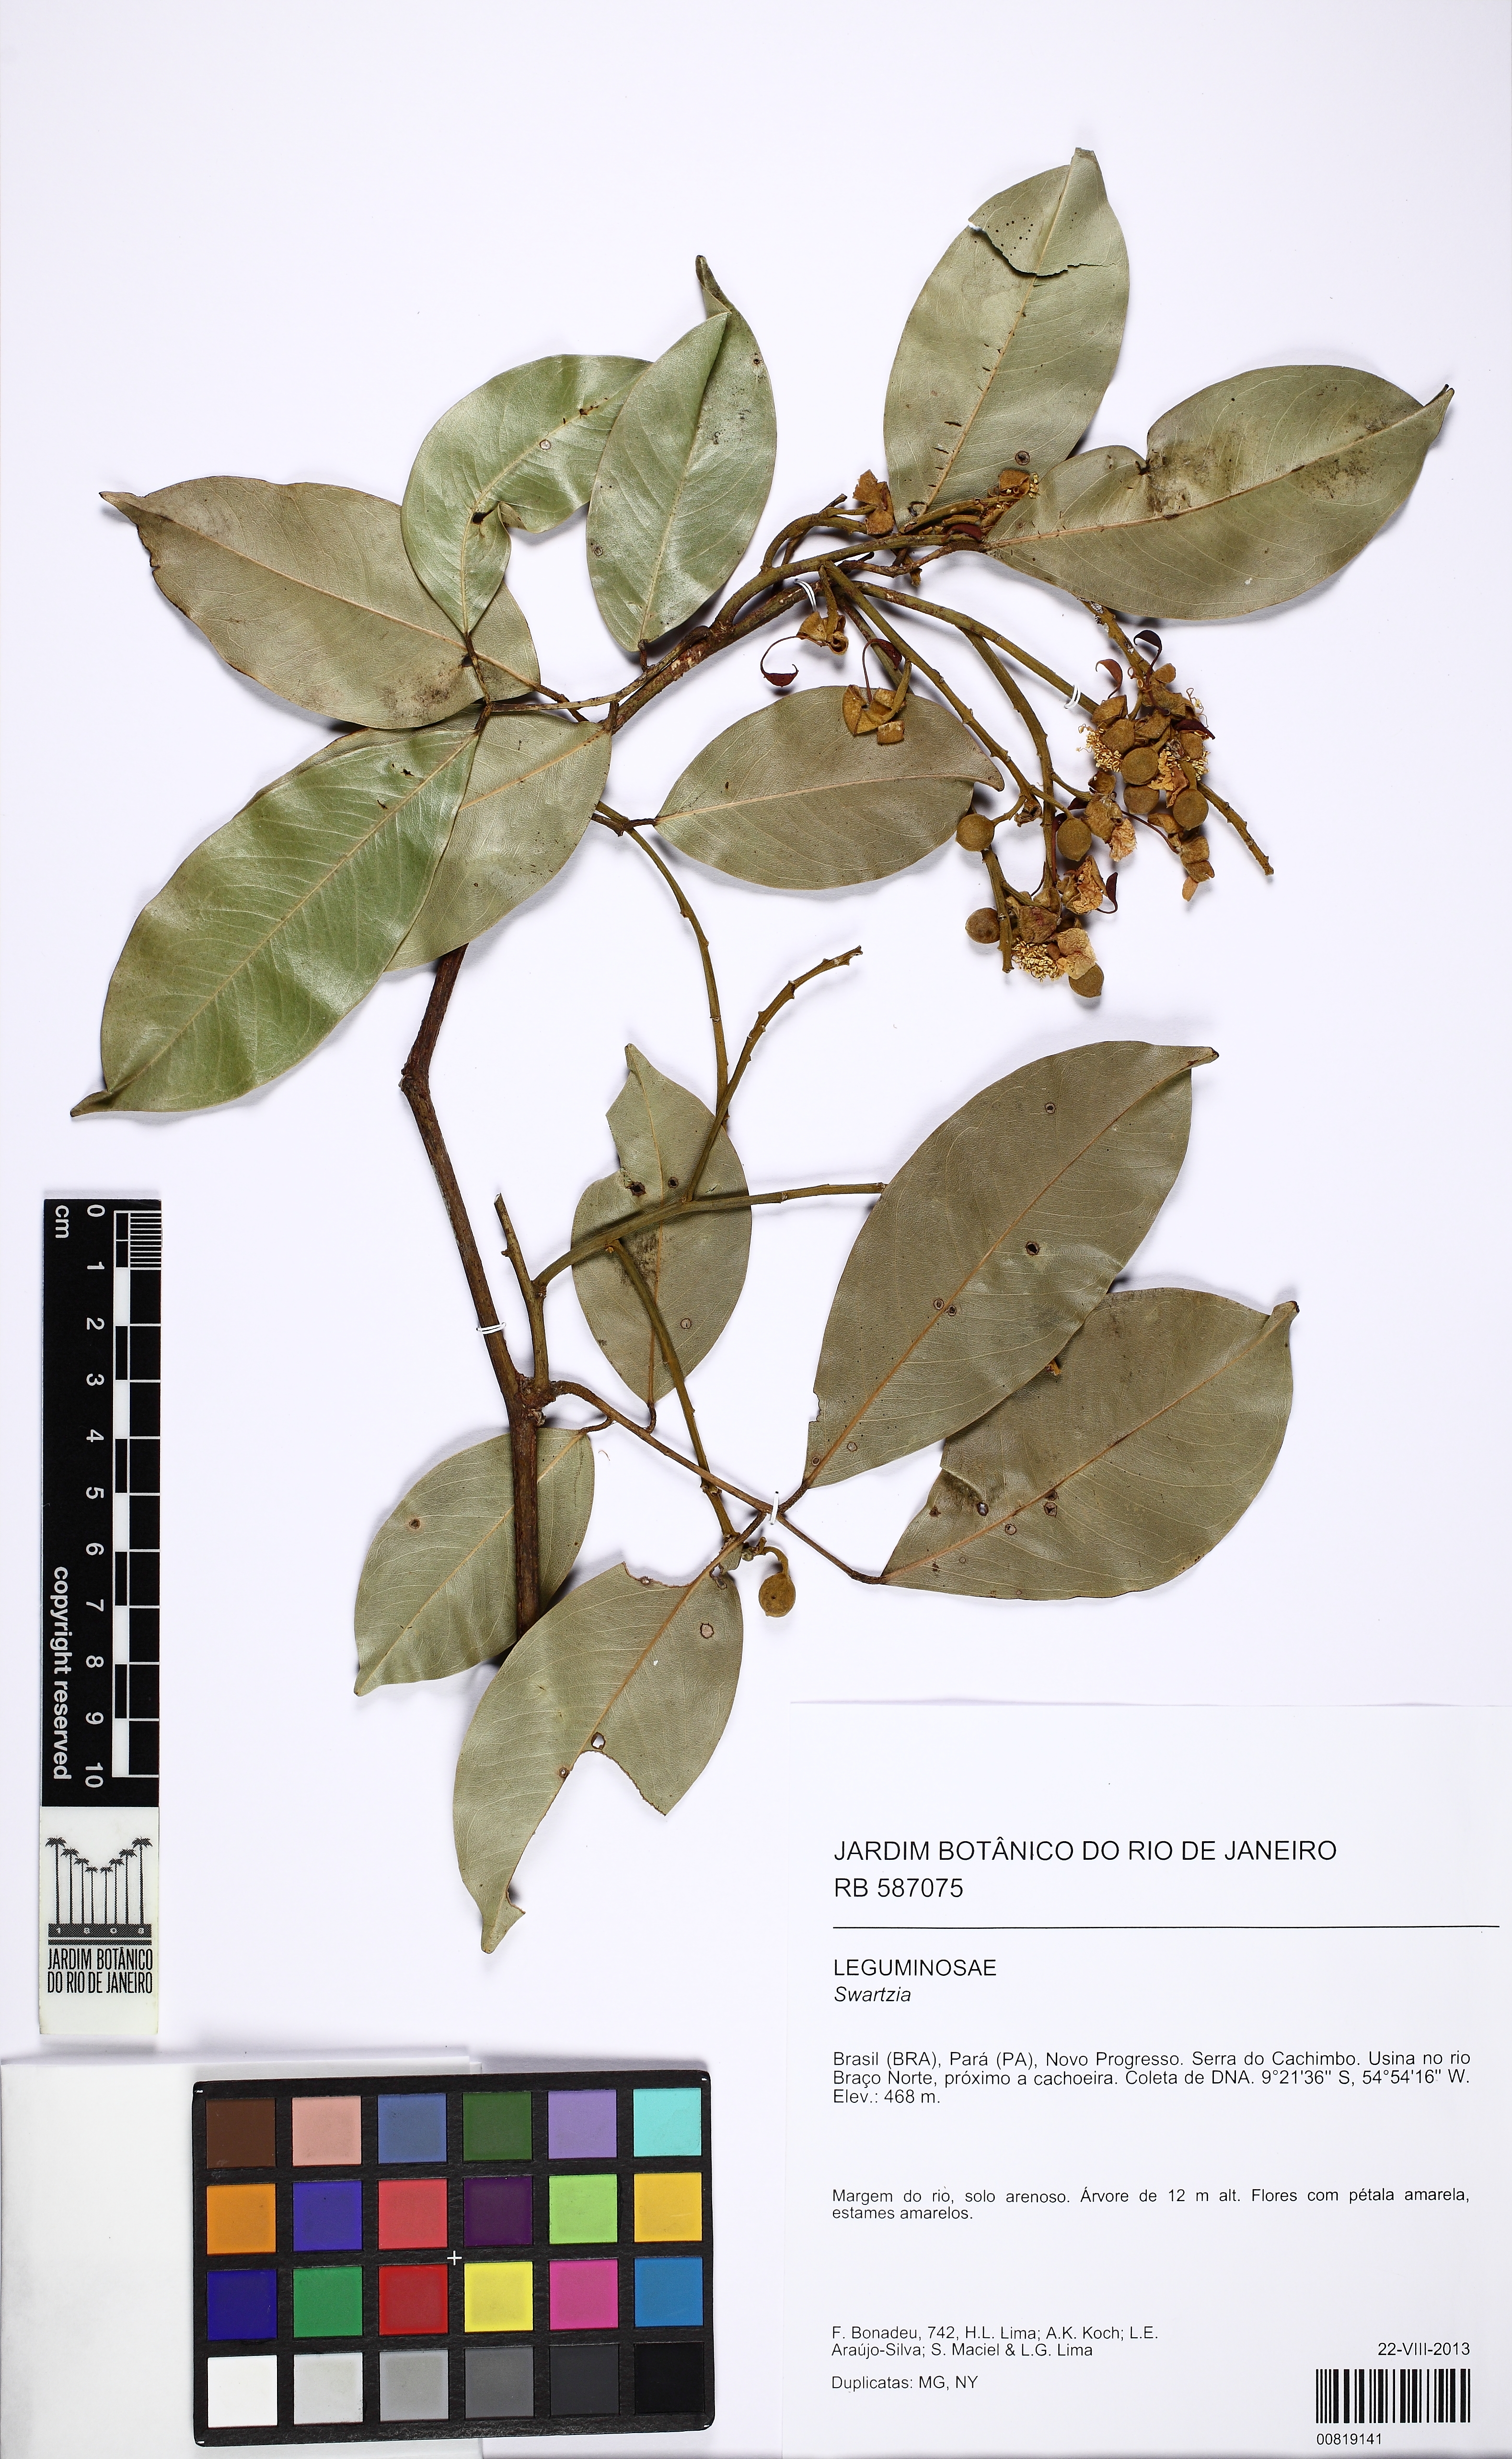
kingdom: Plantae
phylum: Tracheophyta
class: Magnoliopsida
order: Fabales
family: Fabaceae
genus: Swartzia
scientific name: Swartzia recurva
